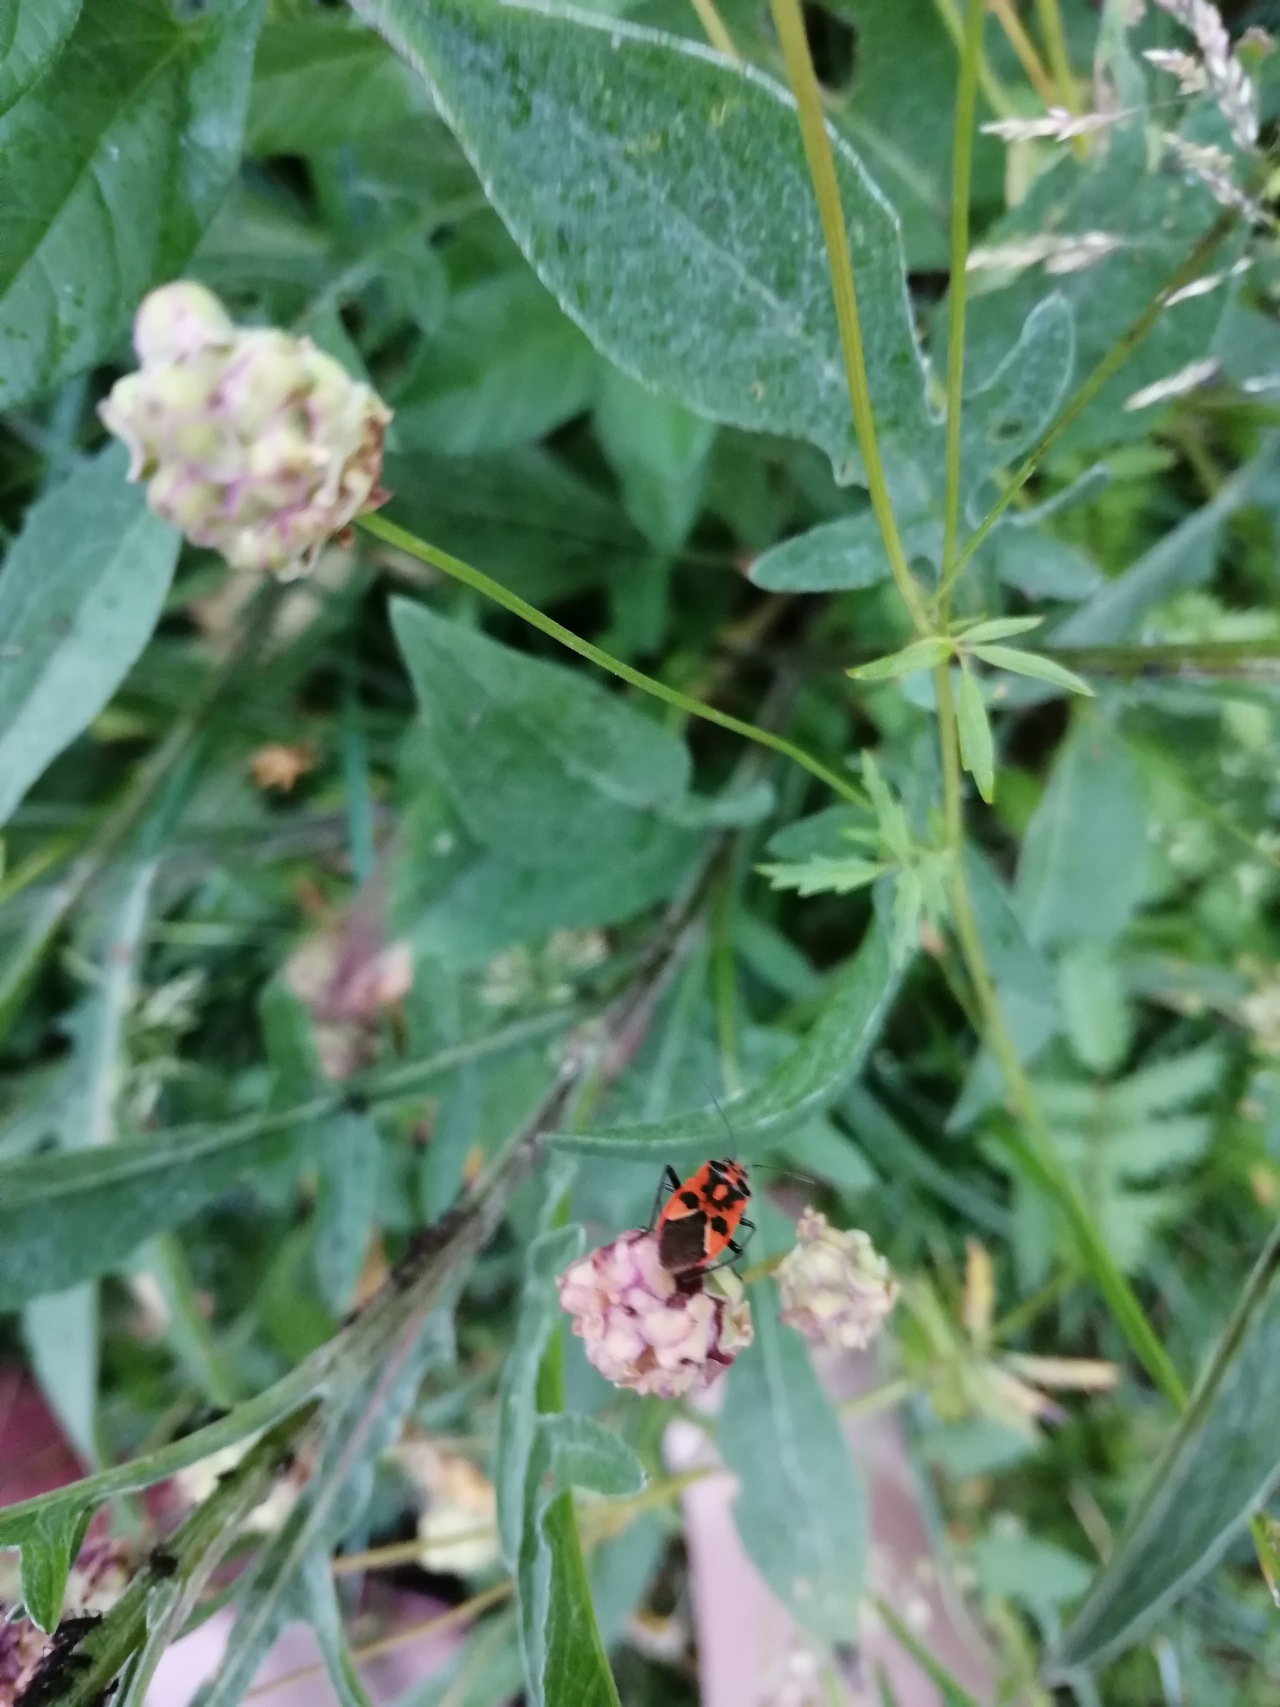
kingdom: Animalia
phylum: Arthropoda
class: Insecta
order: Hemiptera
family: Rhopalidae
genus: Corizus
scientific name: Corizus hyoscyami
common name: Rød kanttæge
